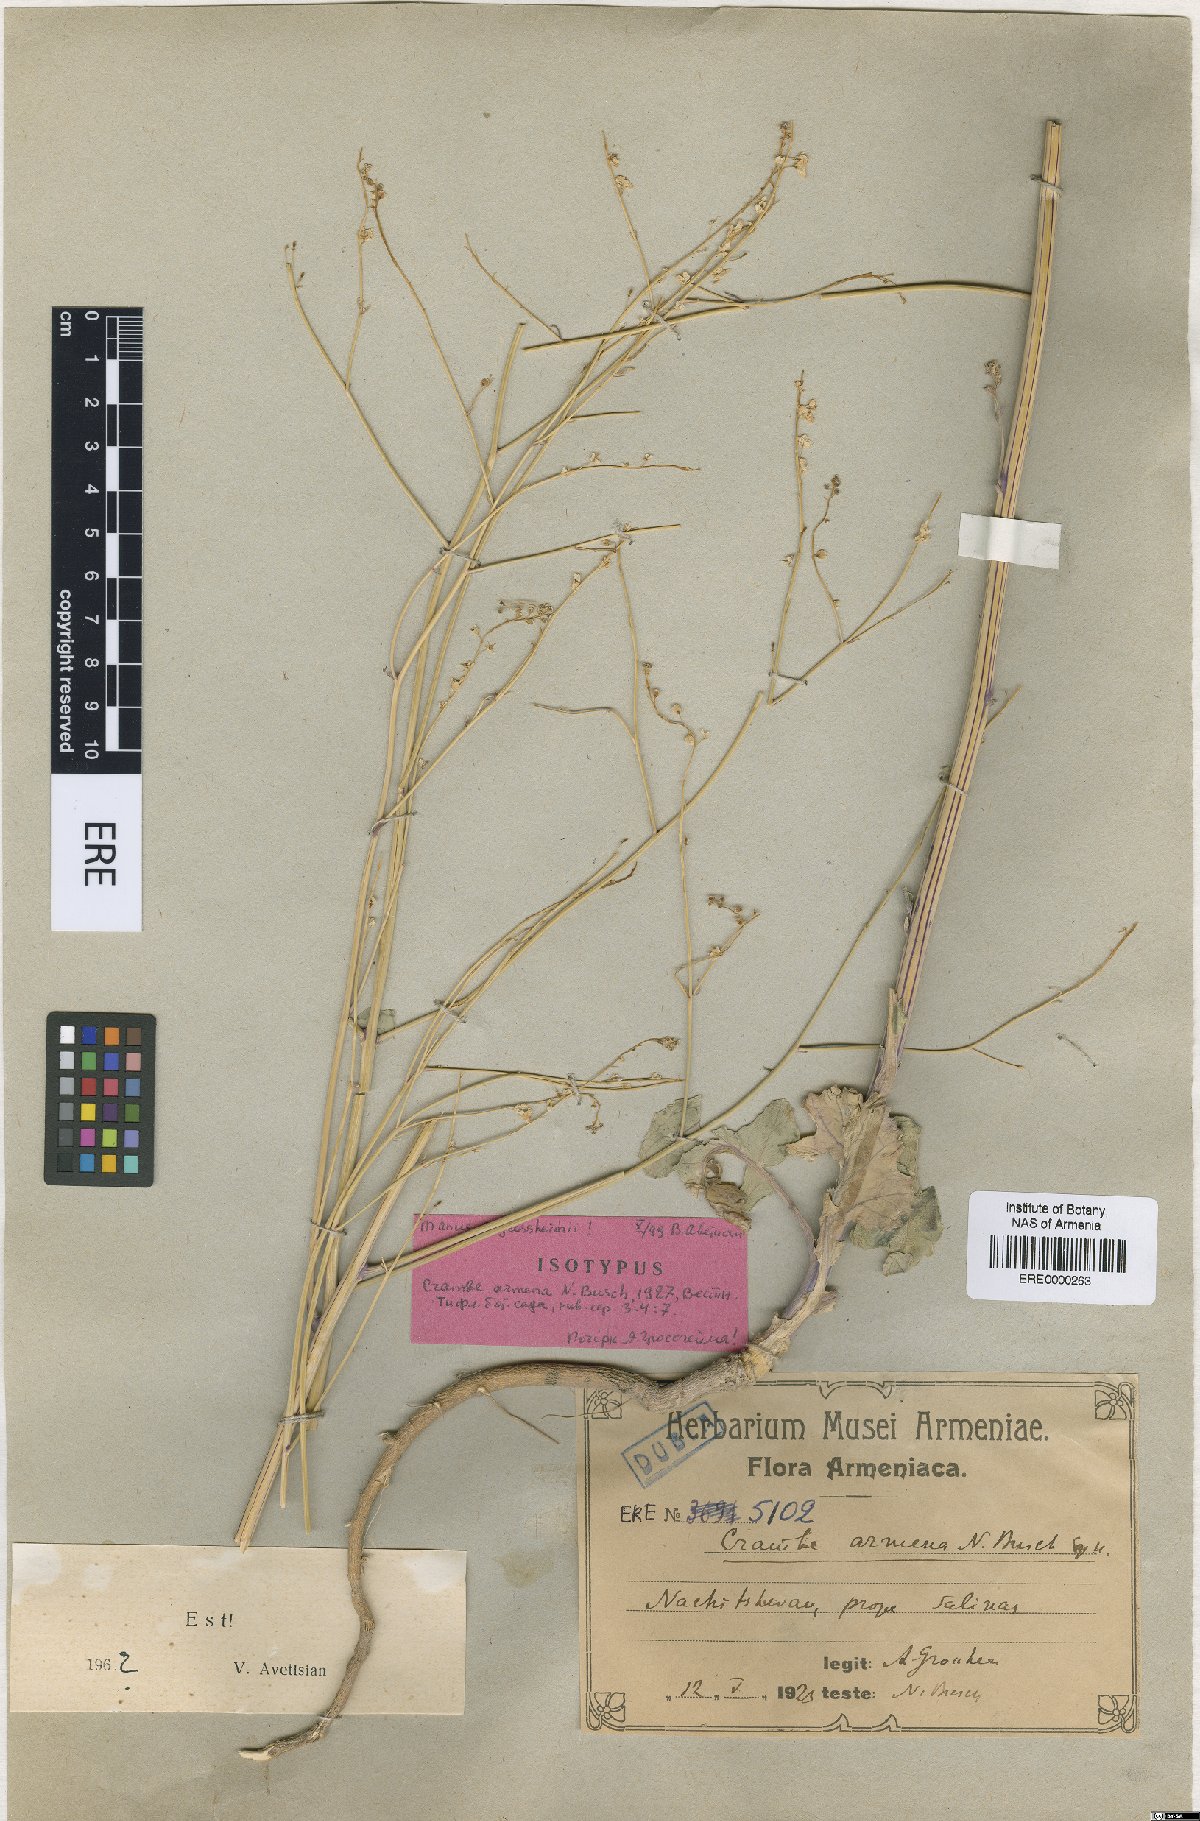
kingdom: Plantae
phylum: Tracheophyta
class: Magnoliopsida
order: Brassicales
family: Brassicaceae
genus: Crambe
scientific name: Crambe armena
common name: Armenian sea-kale
